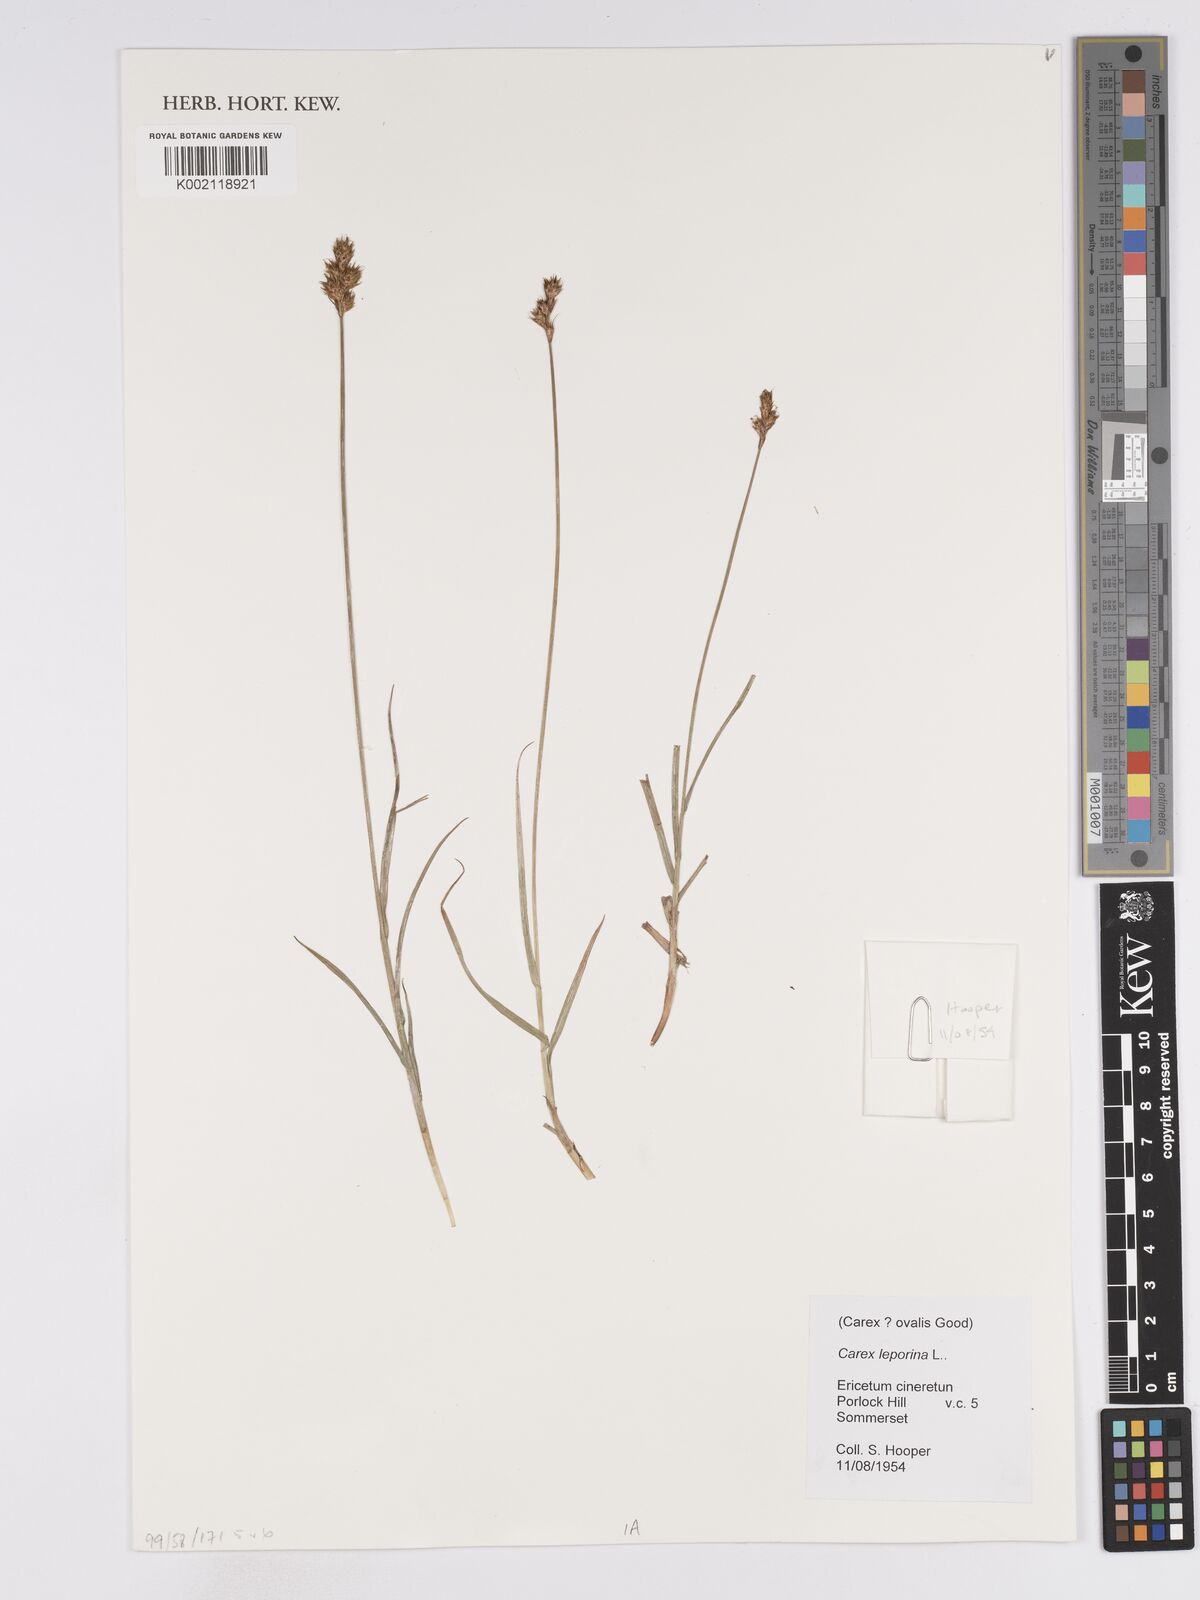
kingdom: Plantae
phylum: Tracheophyta
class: Liliopsida
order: Poales
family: Cyperaceae
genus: Carex
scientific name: Carex leporina
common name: Oval sedge
